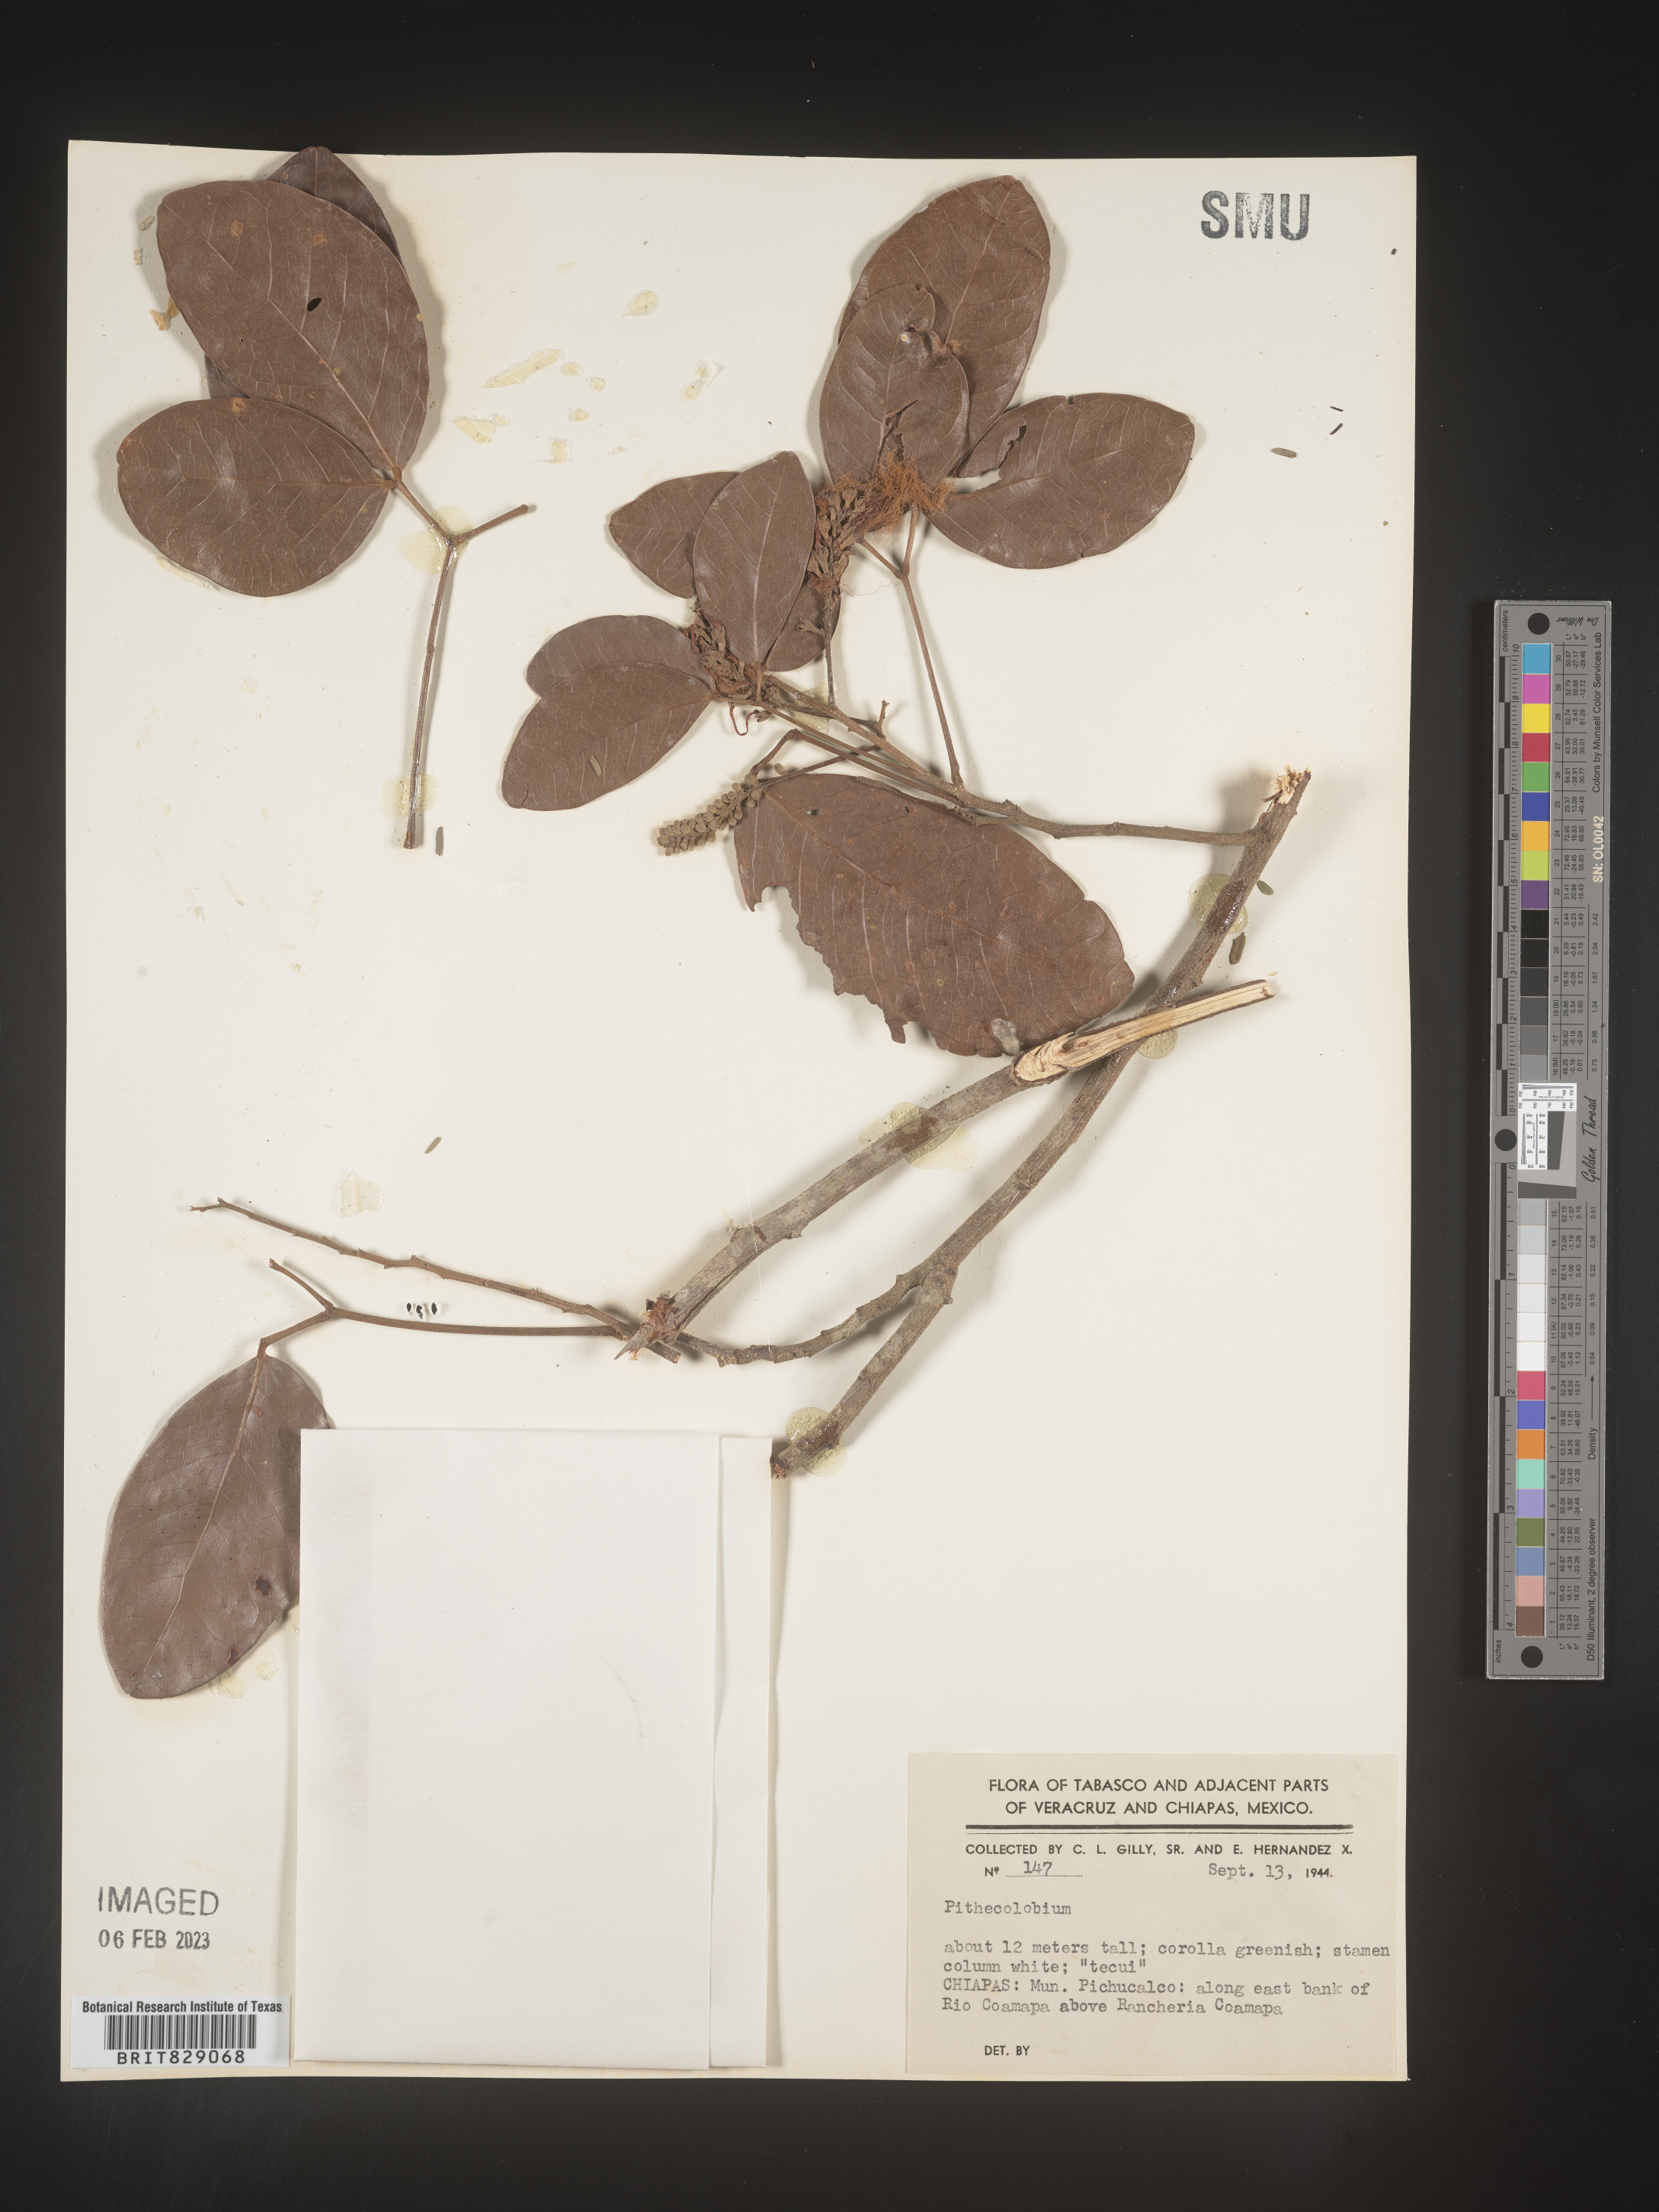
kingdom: Plantae
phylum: Tracheophyta
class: Magnoliopsida
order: Fabales
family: Fabaceae
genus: Pithecellobium
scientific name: Pithecellobium
